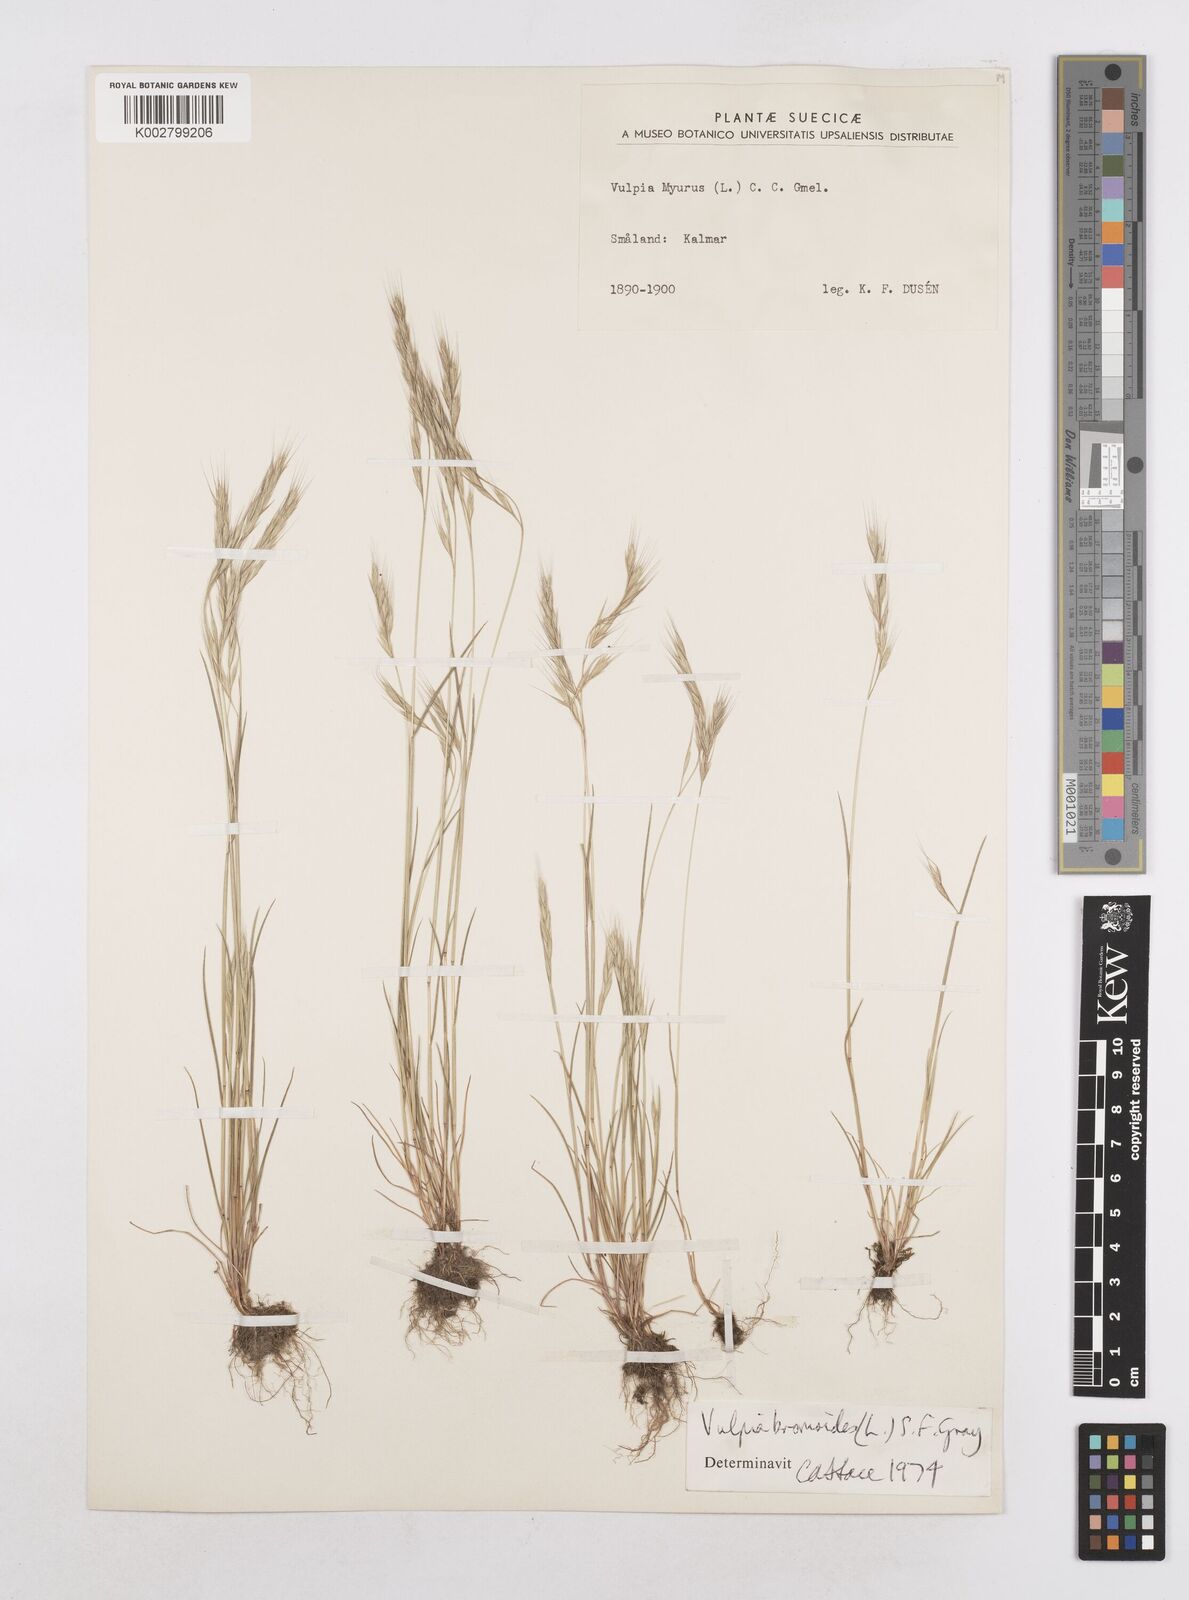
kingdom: Plantae
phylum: Tracheophyta
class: Liliopsida
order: Poales
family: Poaceae
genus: Festuca
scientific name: Festuca bromoides
